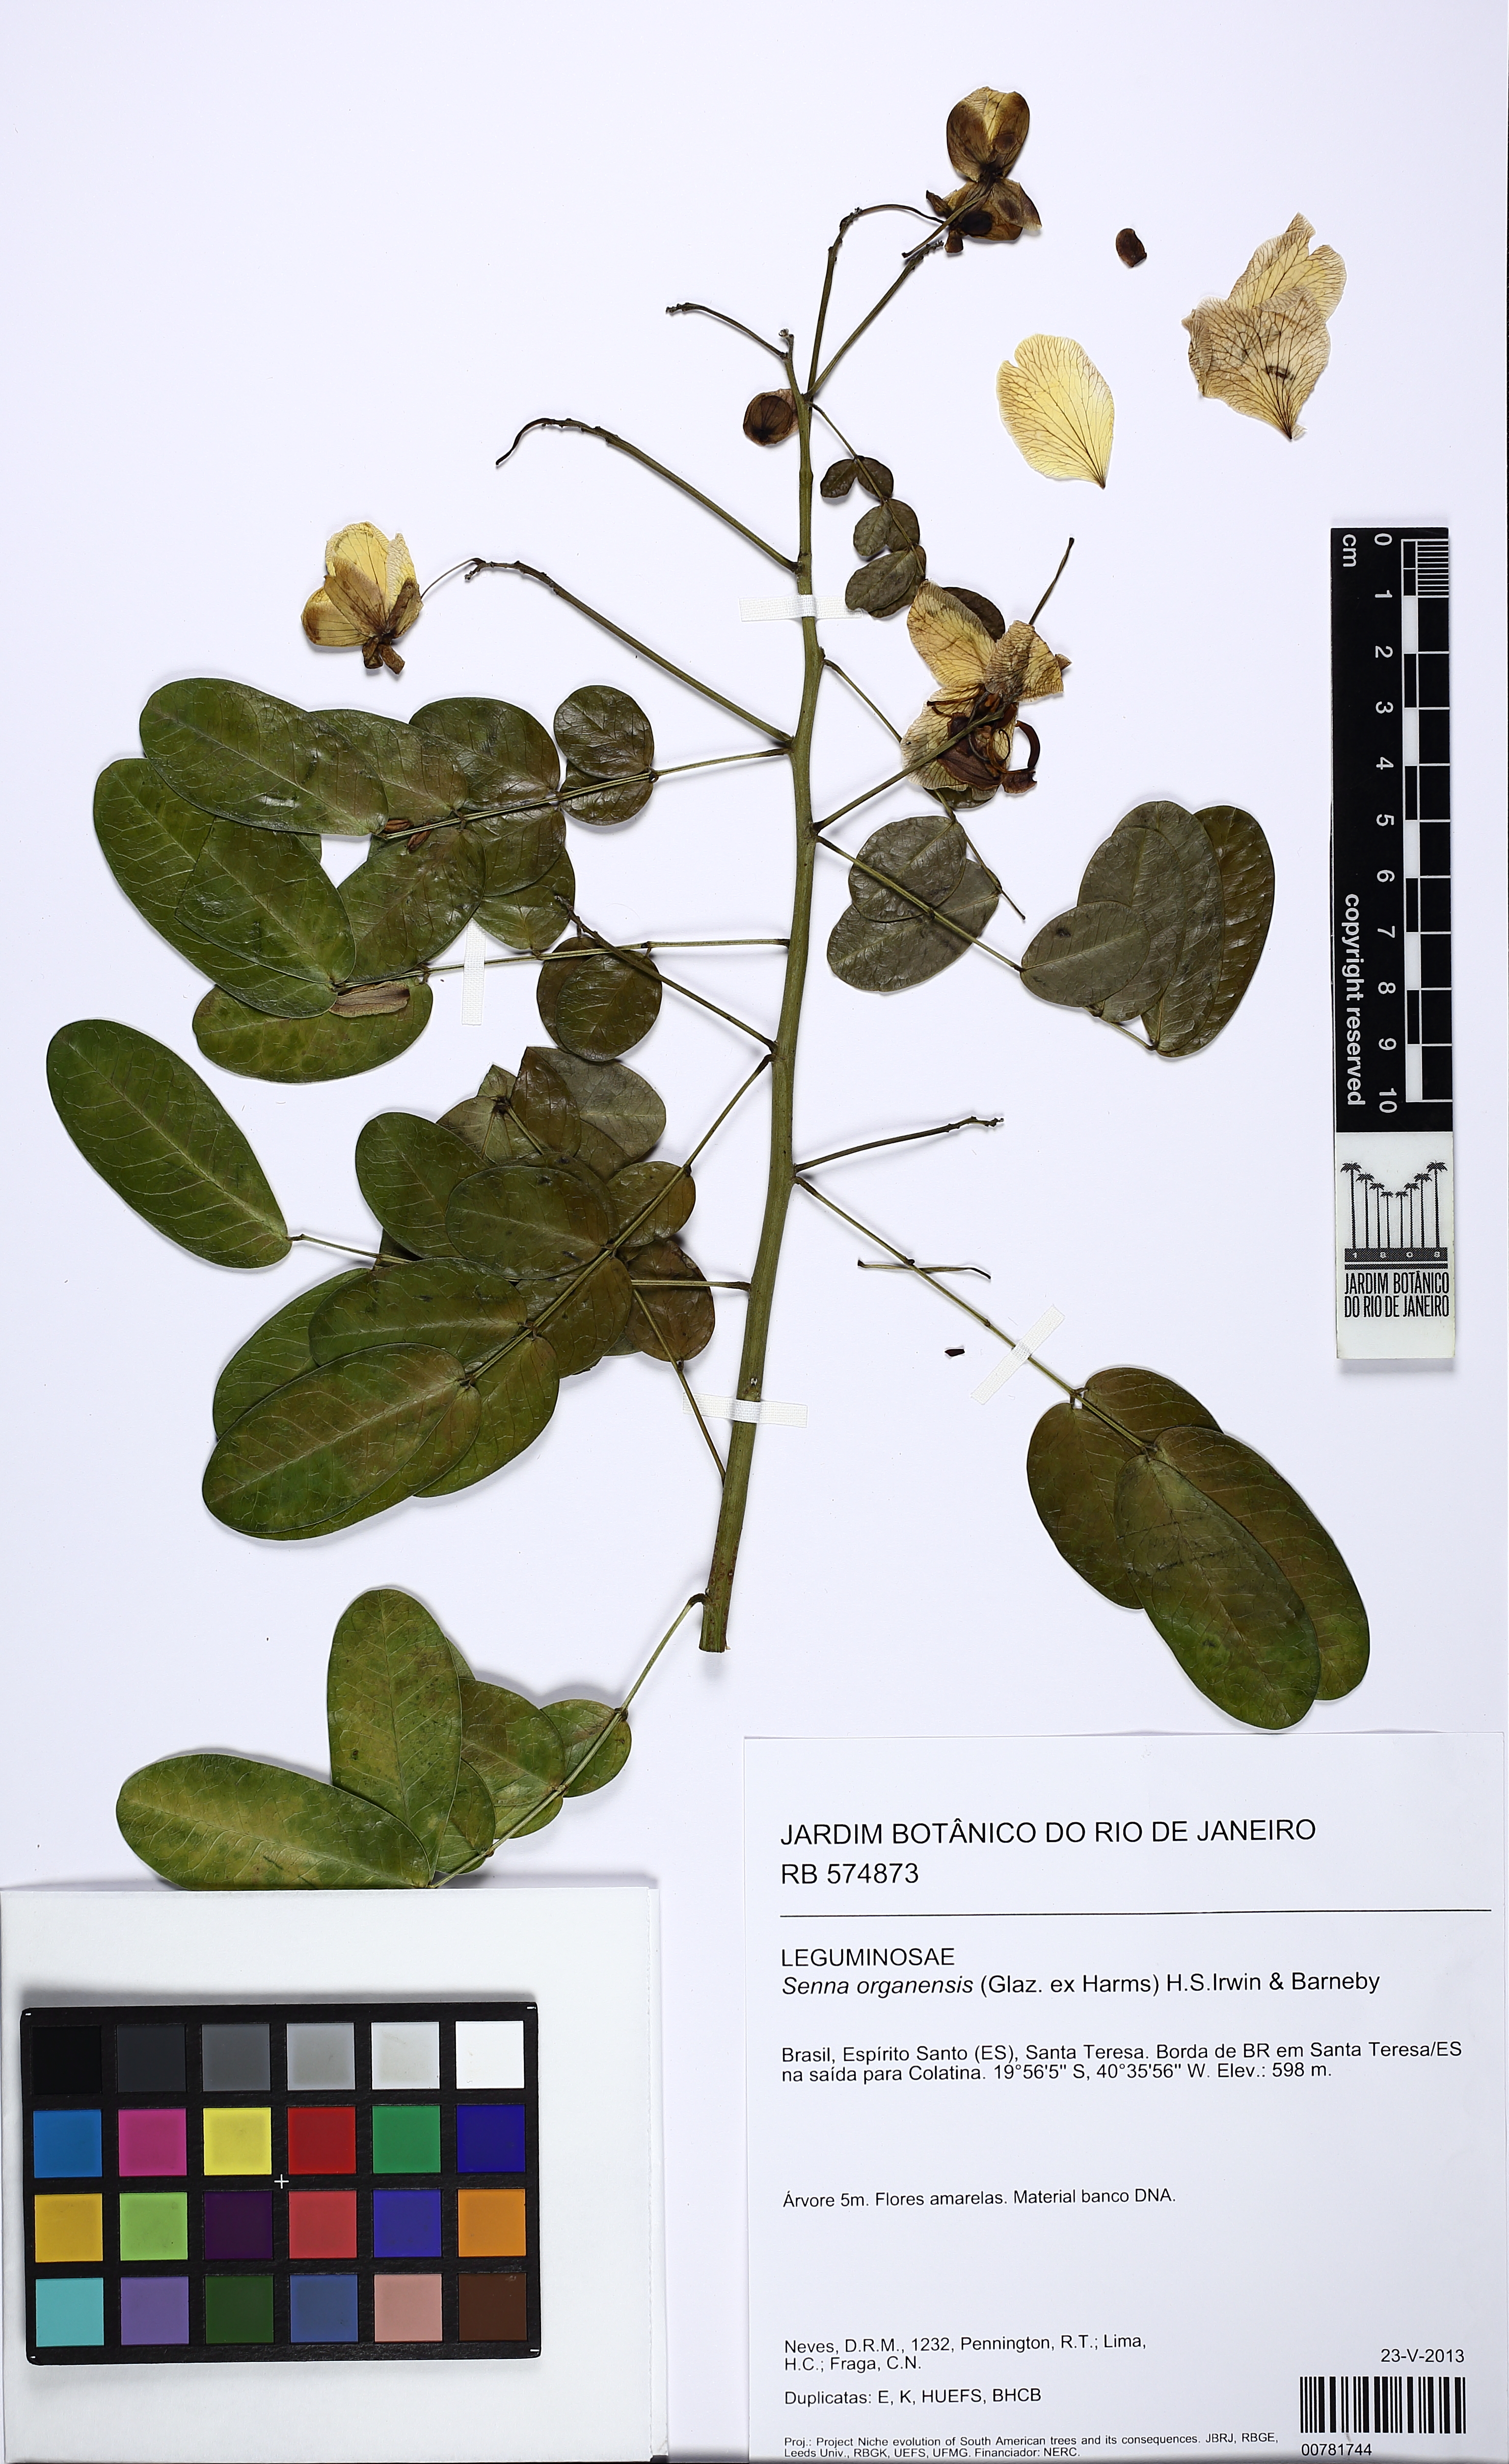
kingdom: Plantae
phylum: Tracheophyta
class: Magnoliopsida
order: Fabales
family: Fabaceae
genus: Senna
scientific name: Senna
